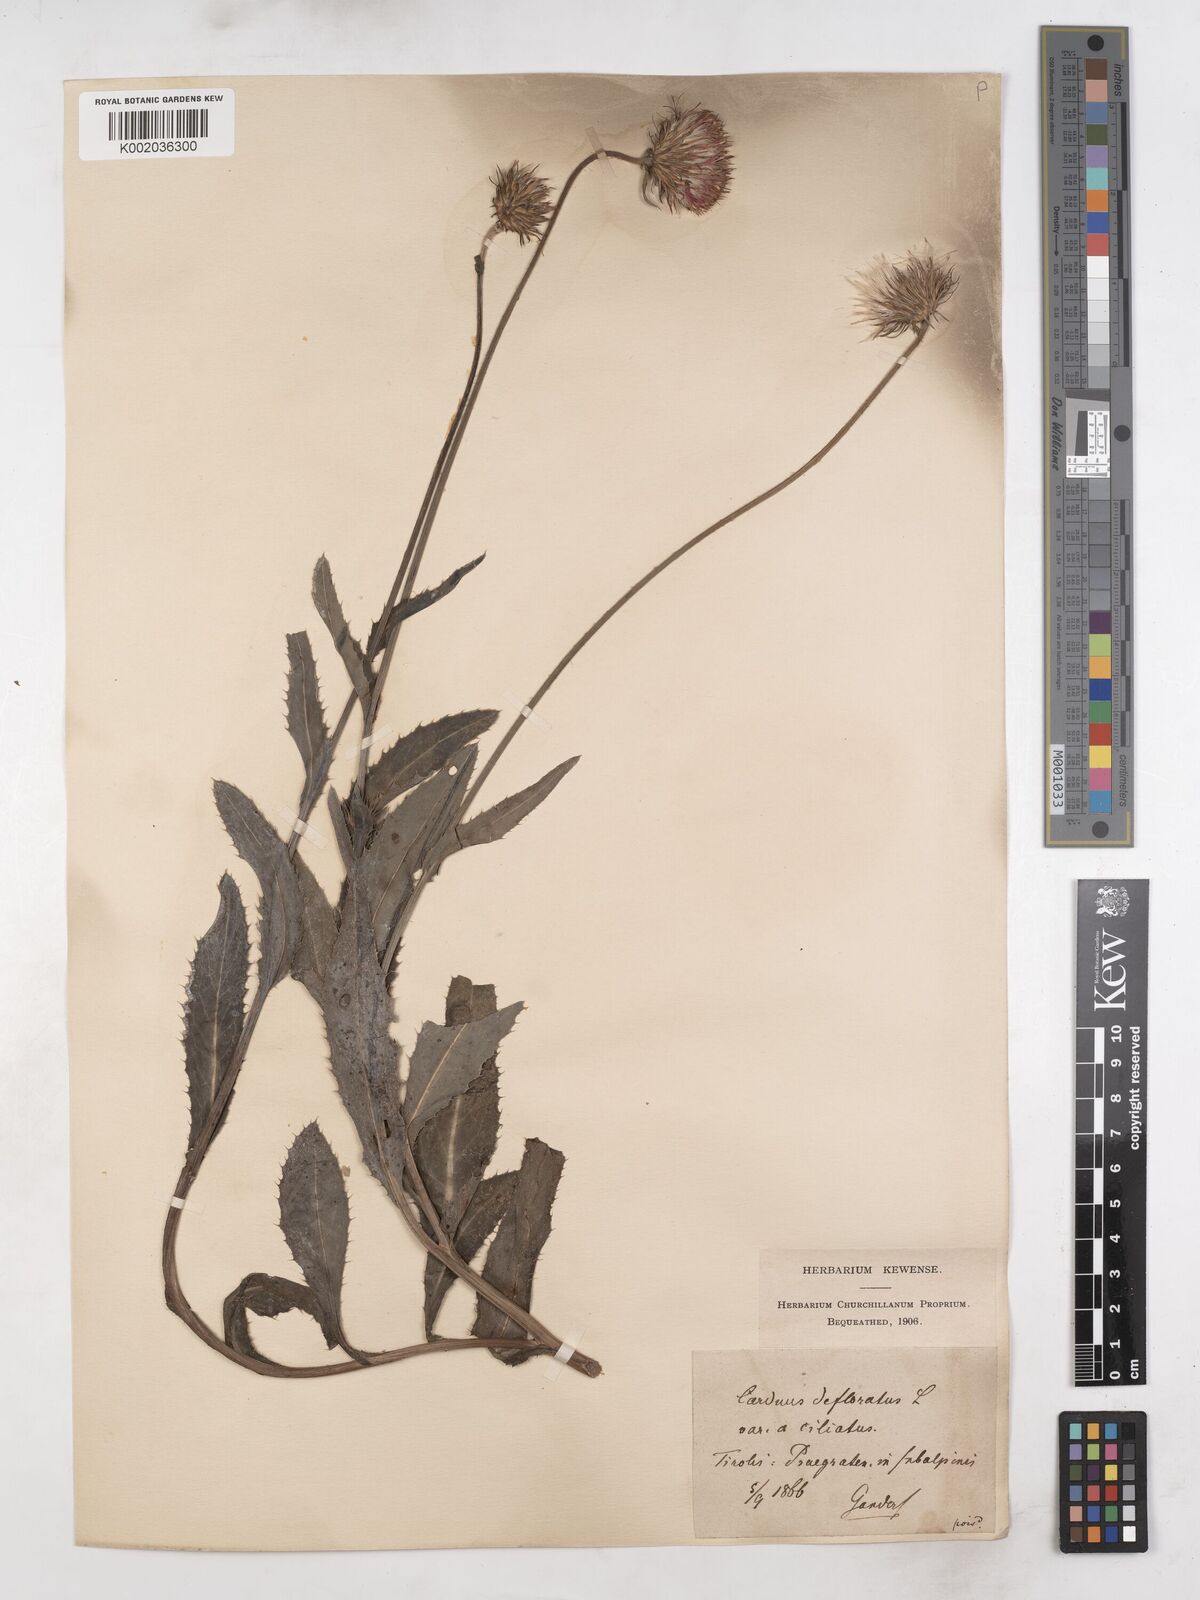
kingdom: Plantae
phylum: Tracheophyta
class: Magnoliopsida
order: Asterales
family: Asteraceae
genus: Carduus
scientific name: Carduus defloratus
